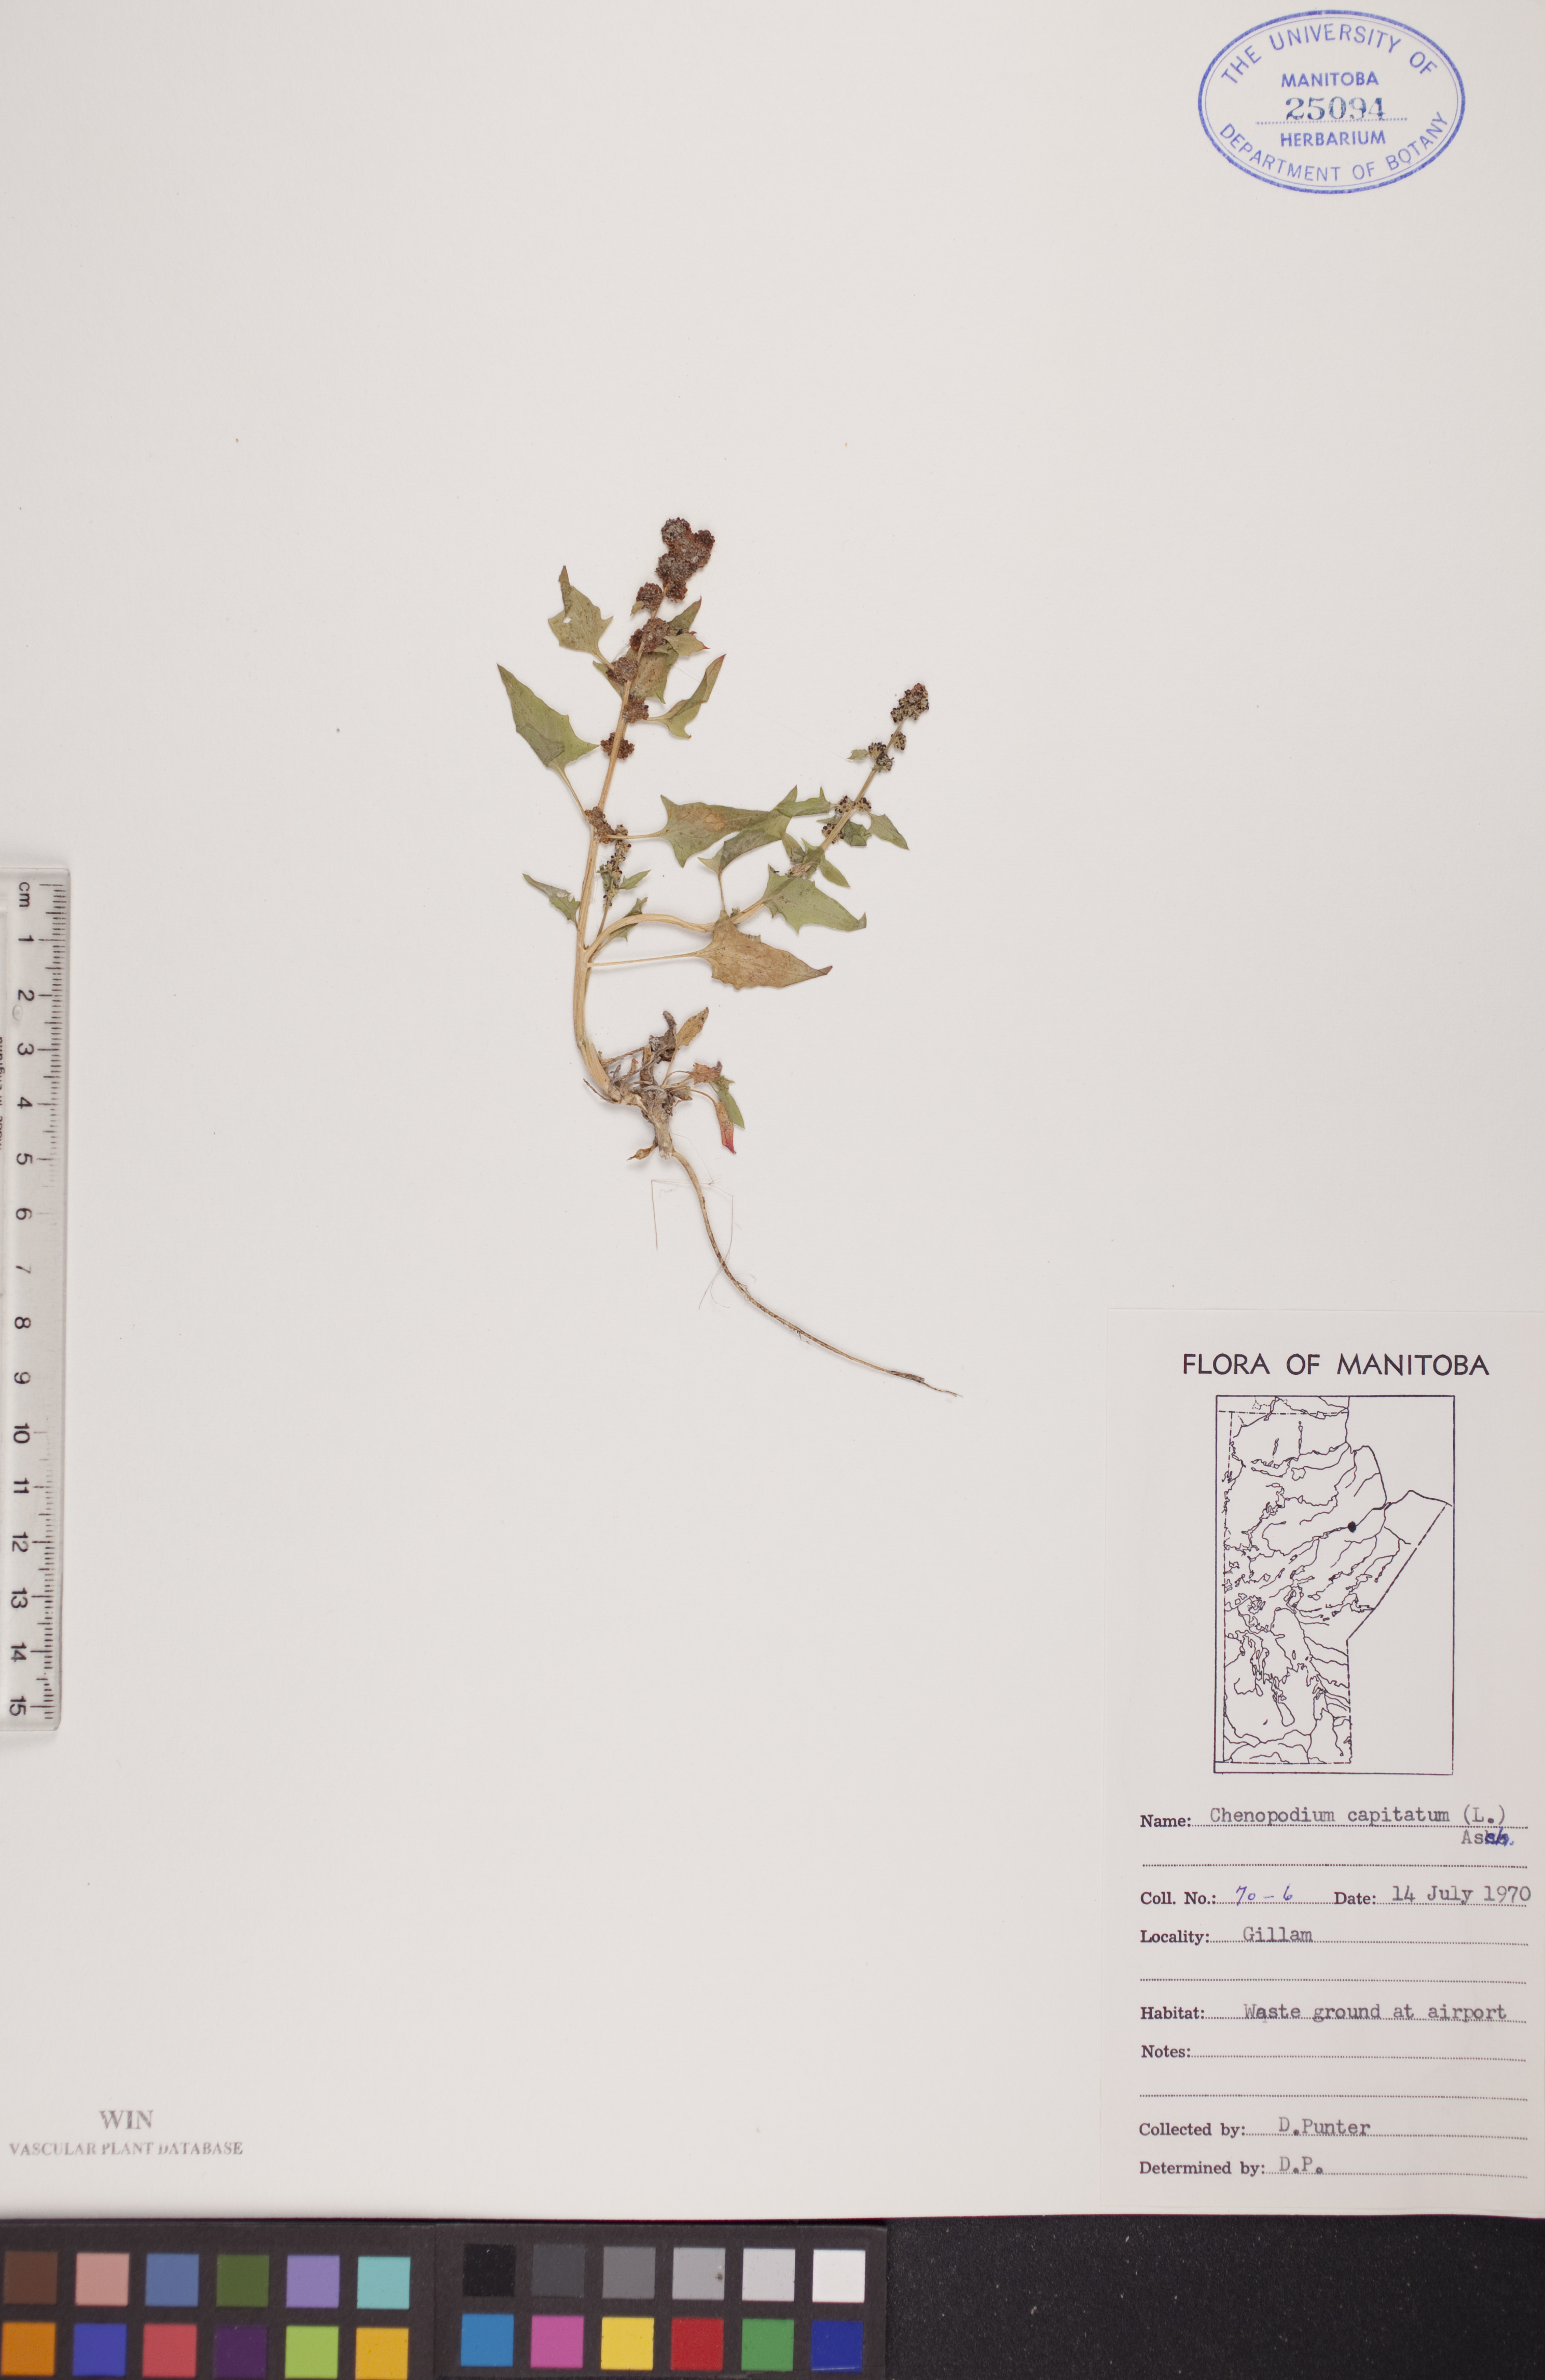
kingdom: Plantae
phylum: Tracheophyta
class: Magnoliopsida
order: Caryophyllales
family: Amaranthaceae
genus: Blitum
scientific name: Blitum capitatum
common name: Strawberry-blight
